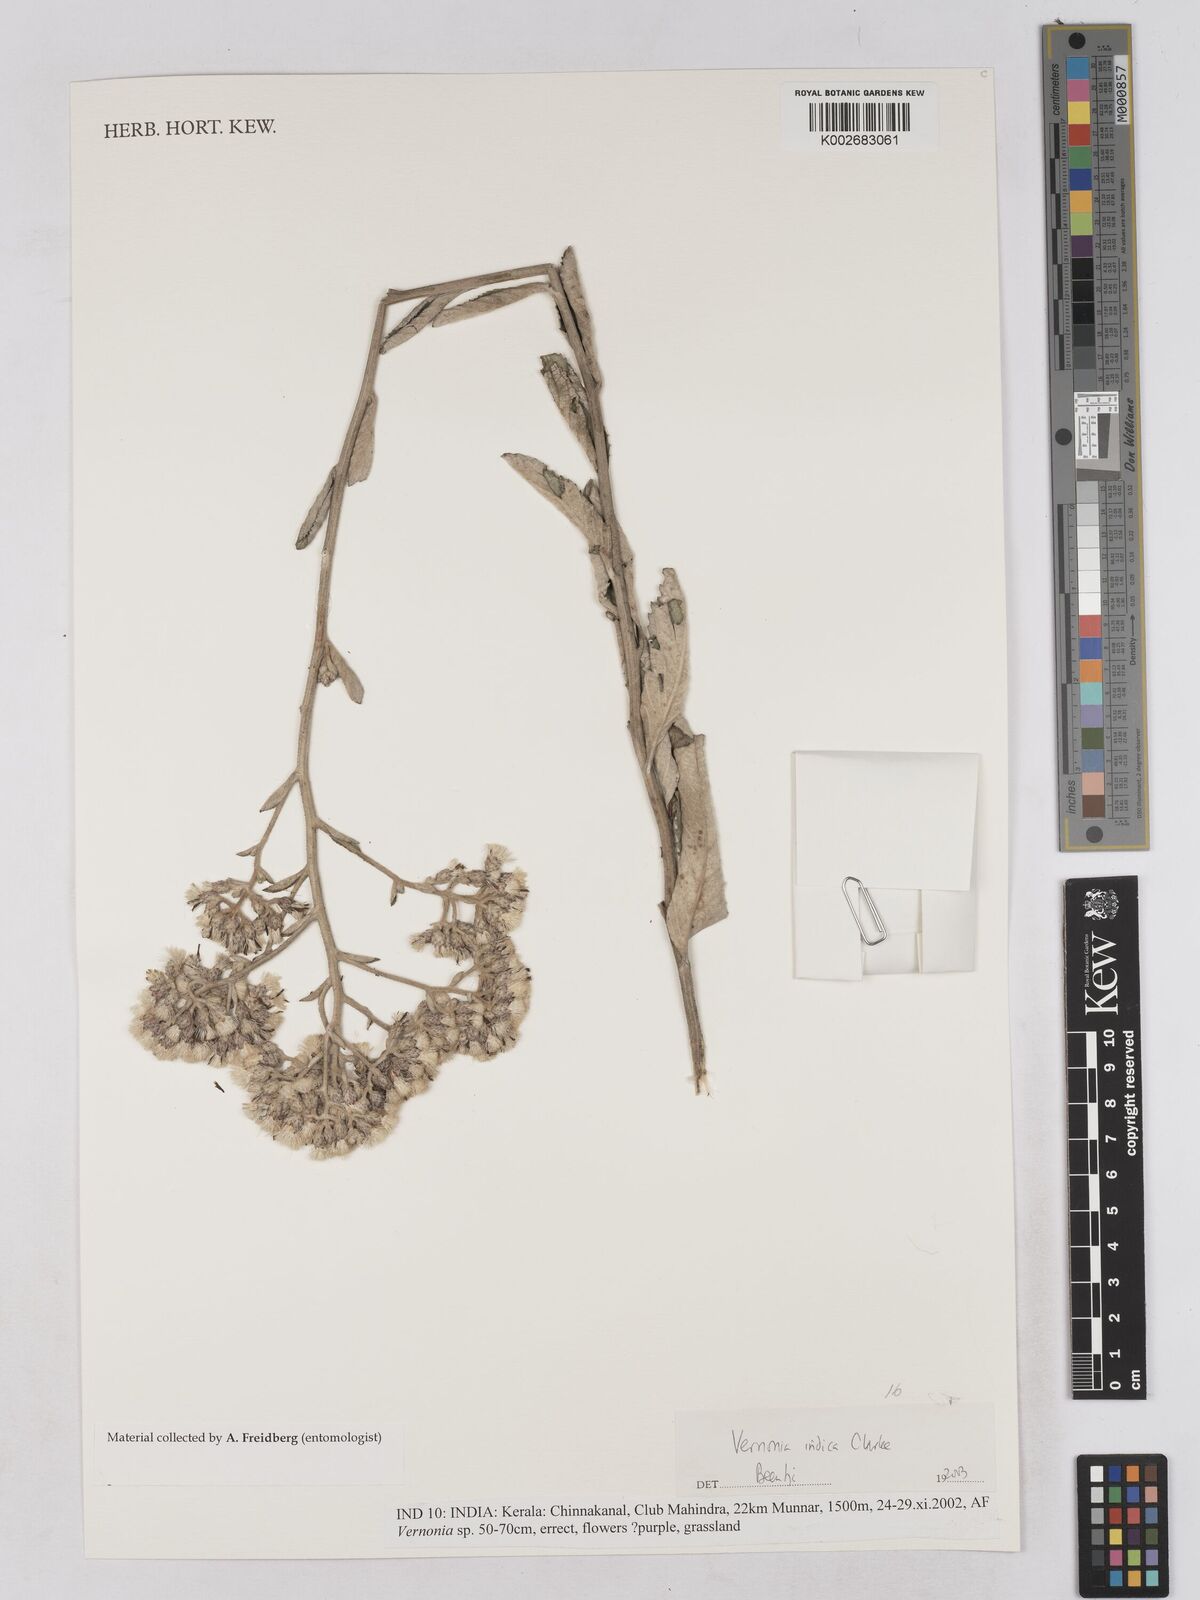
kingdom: Plantae
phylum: Tracheophyta
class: Magnoliopsida
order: Asterales
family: Asteraceae
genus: Acilepis
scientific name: Acilepis dendigulensis
